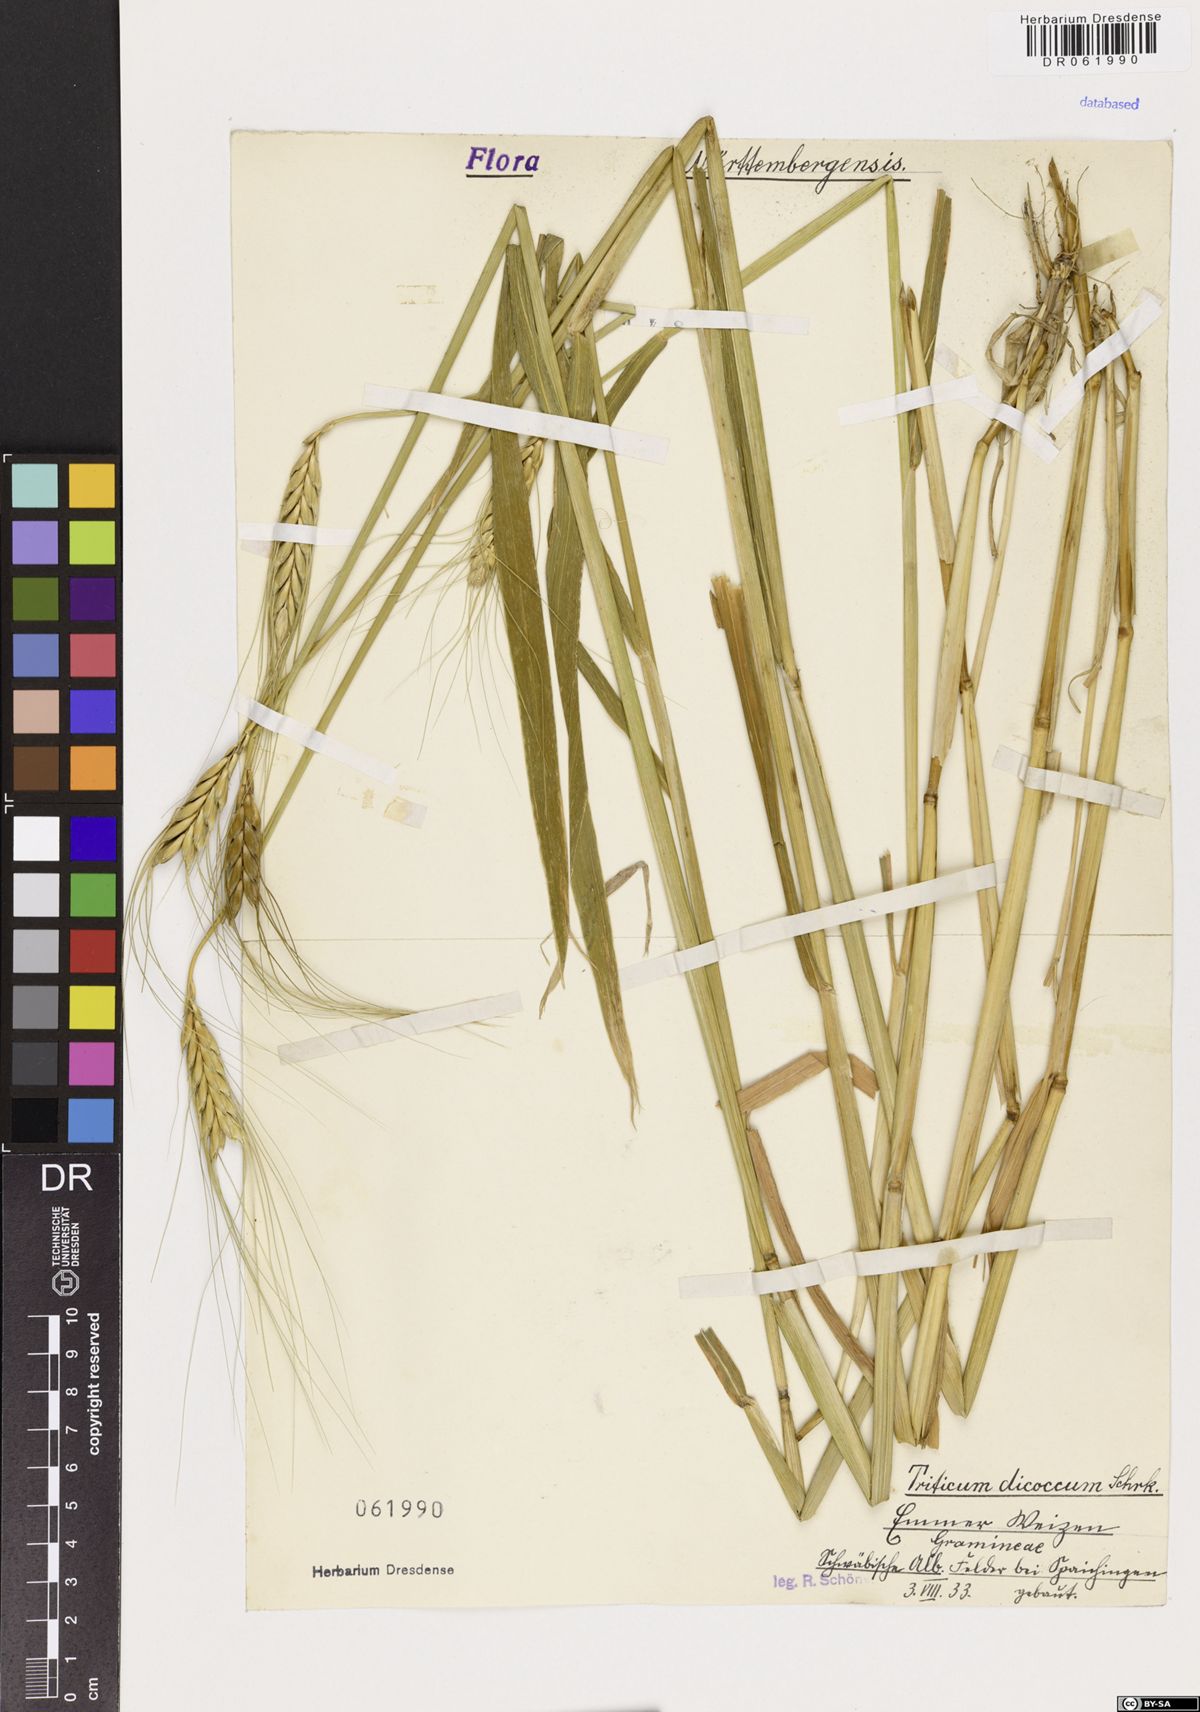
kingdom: Plantae
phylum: Tracheophyta
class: Liliopsida
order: Poales
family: Poaceae
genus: Triticum
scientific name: Triticum turgidum
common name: Rivet wheat
